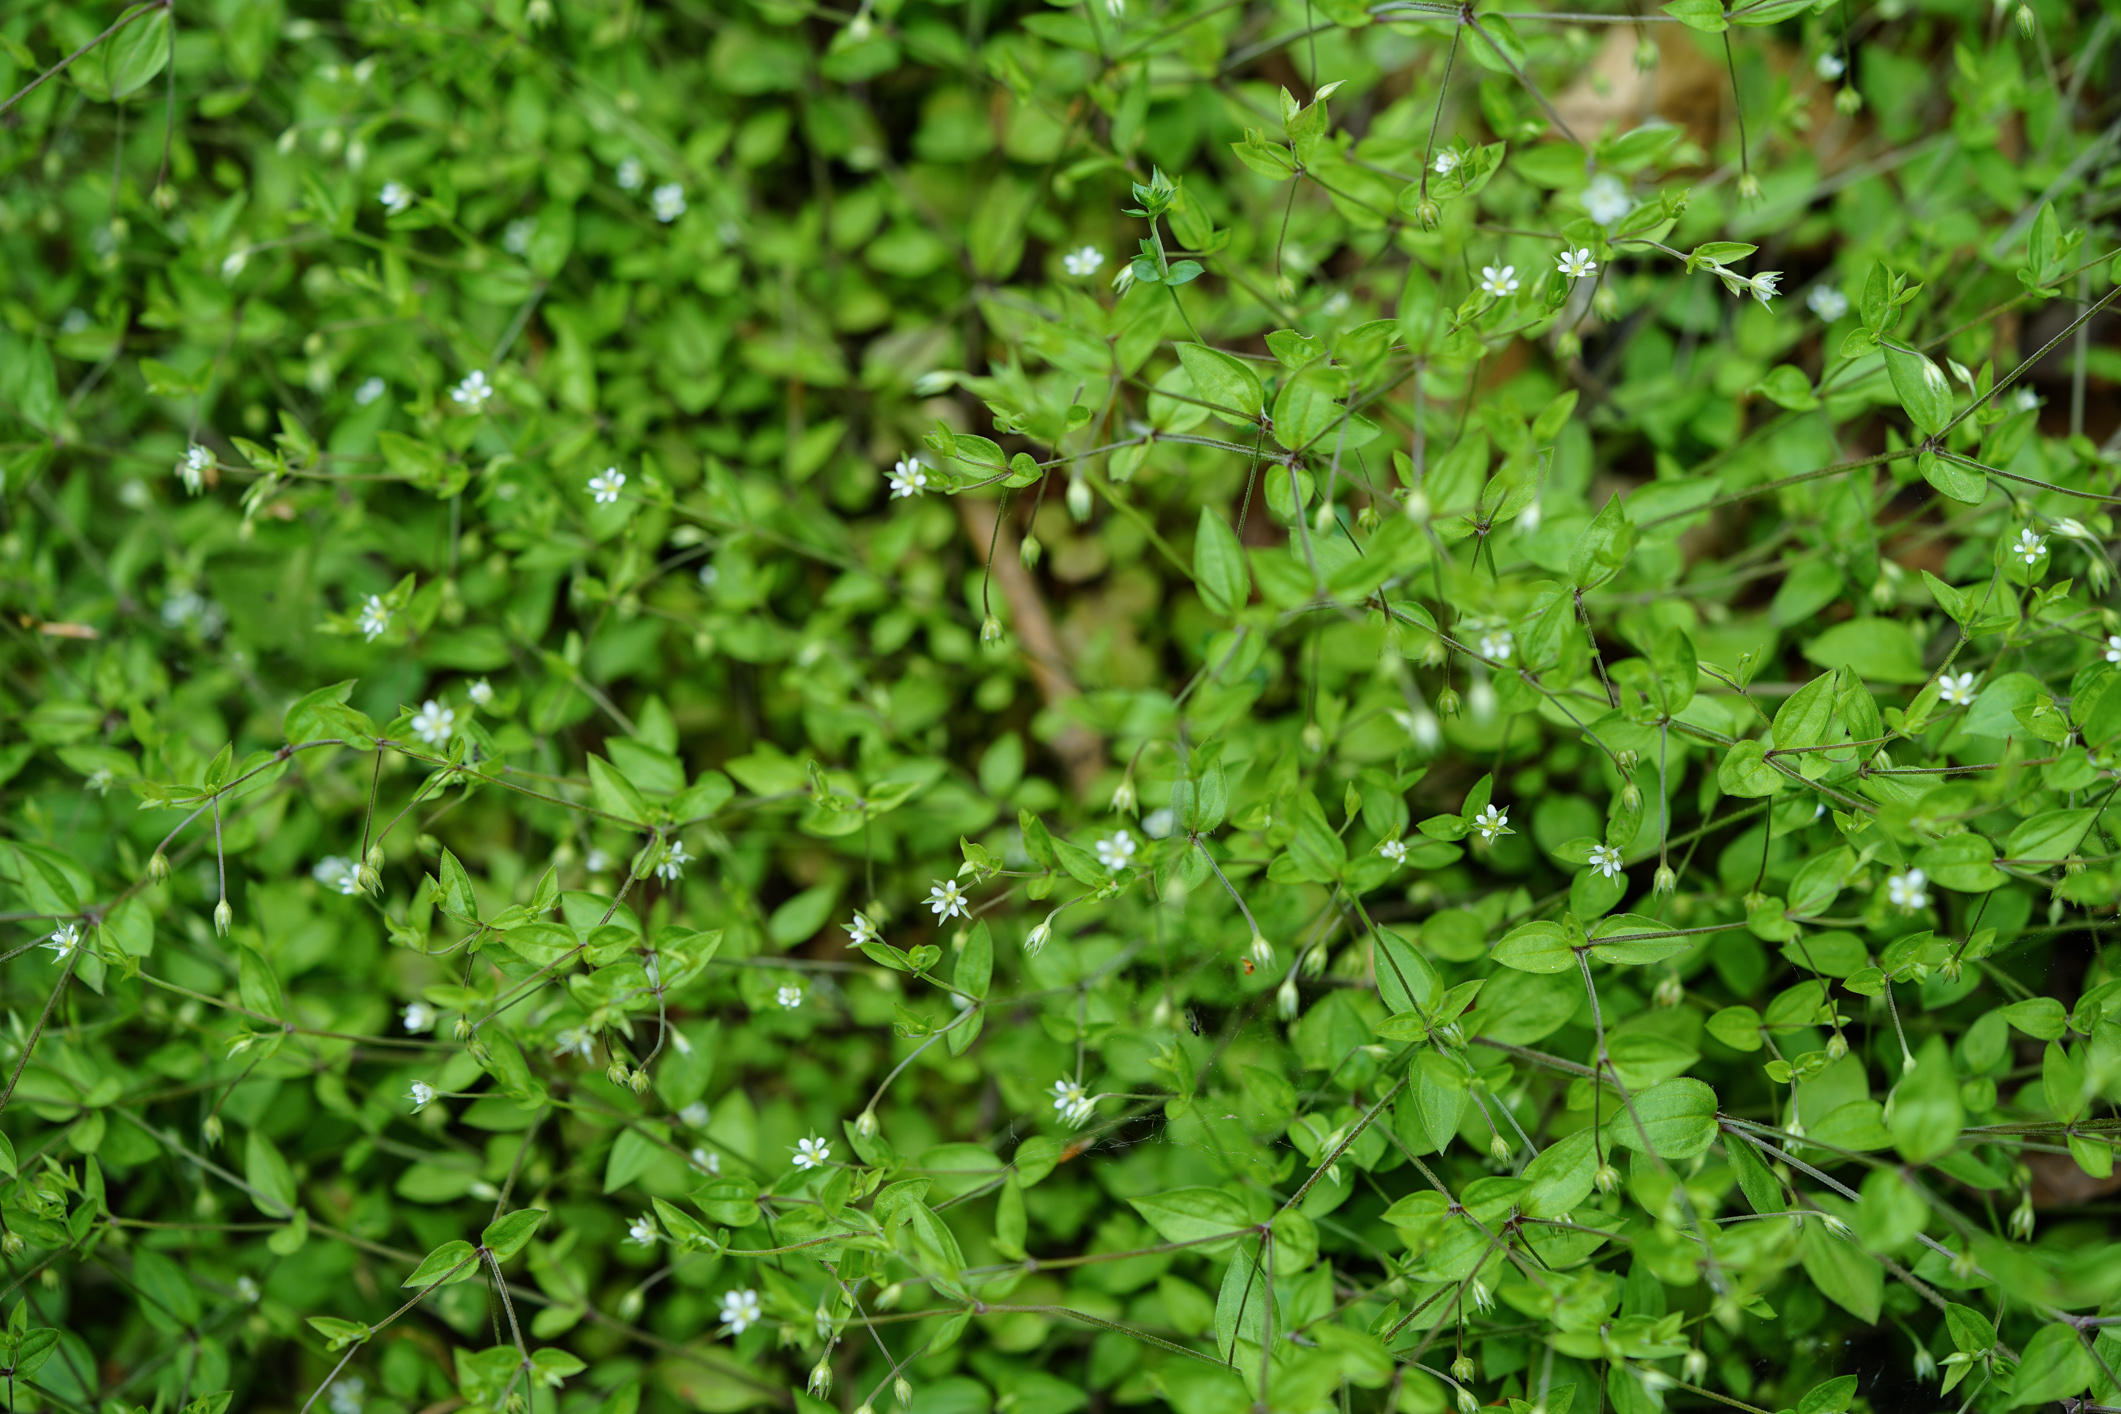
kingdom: Plantae
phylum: Tracheophyta
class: Magnoliopsida
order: Caryophyllales
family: Caryophyllaceae
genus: Moehringia
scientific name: Moehringia trinervia
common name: Three-nerved sandwort
